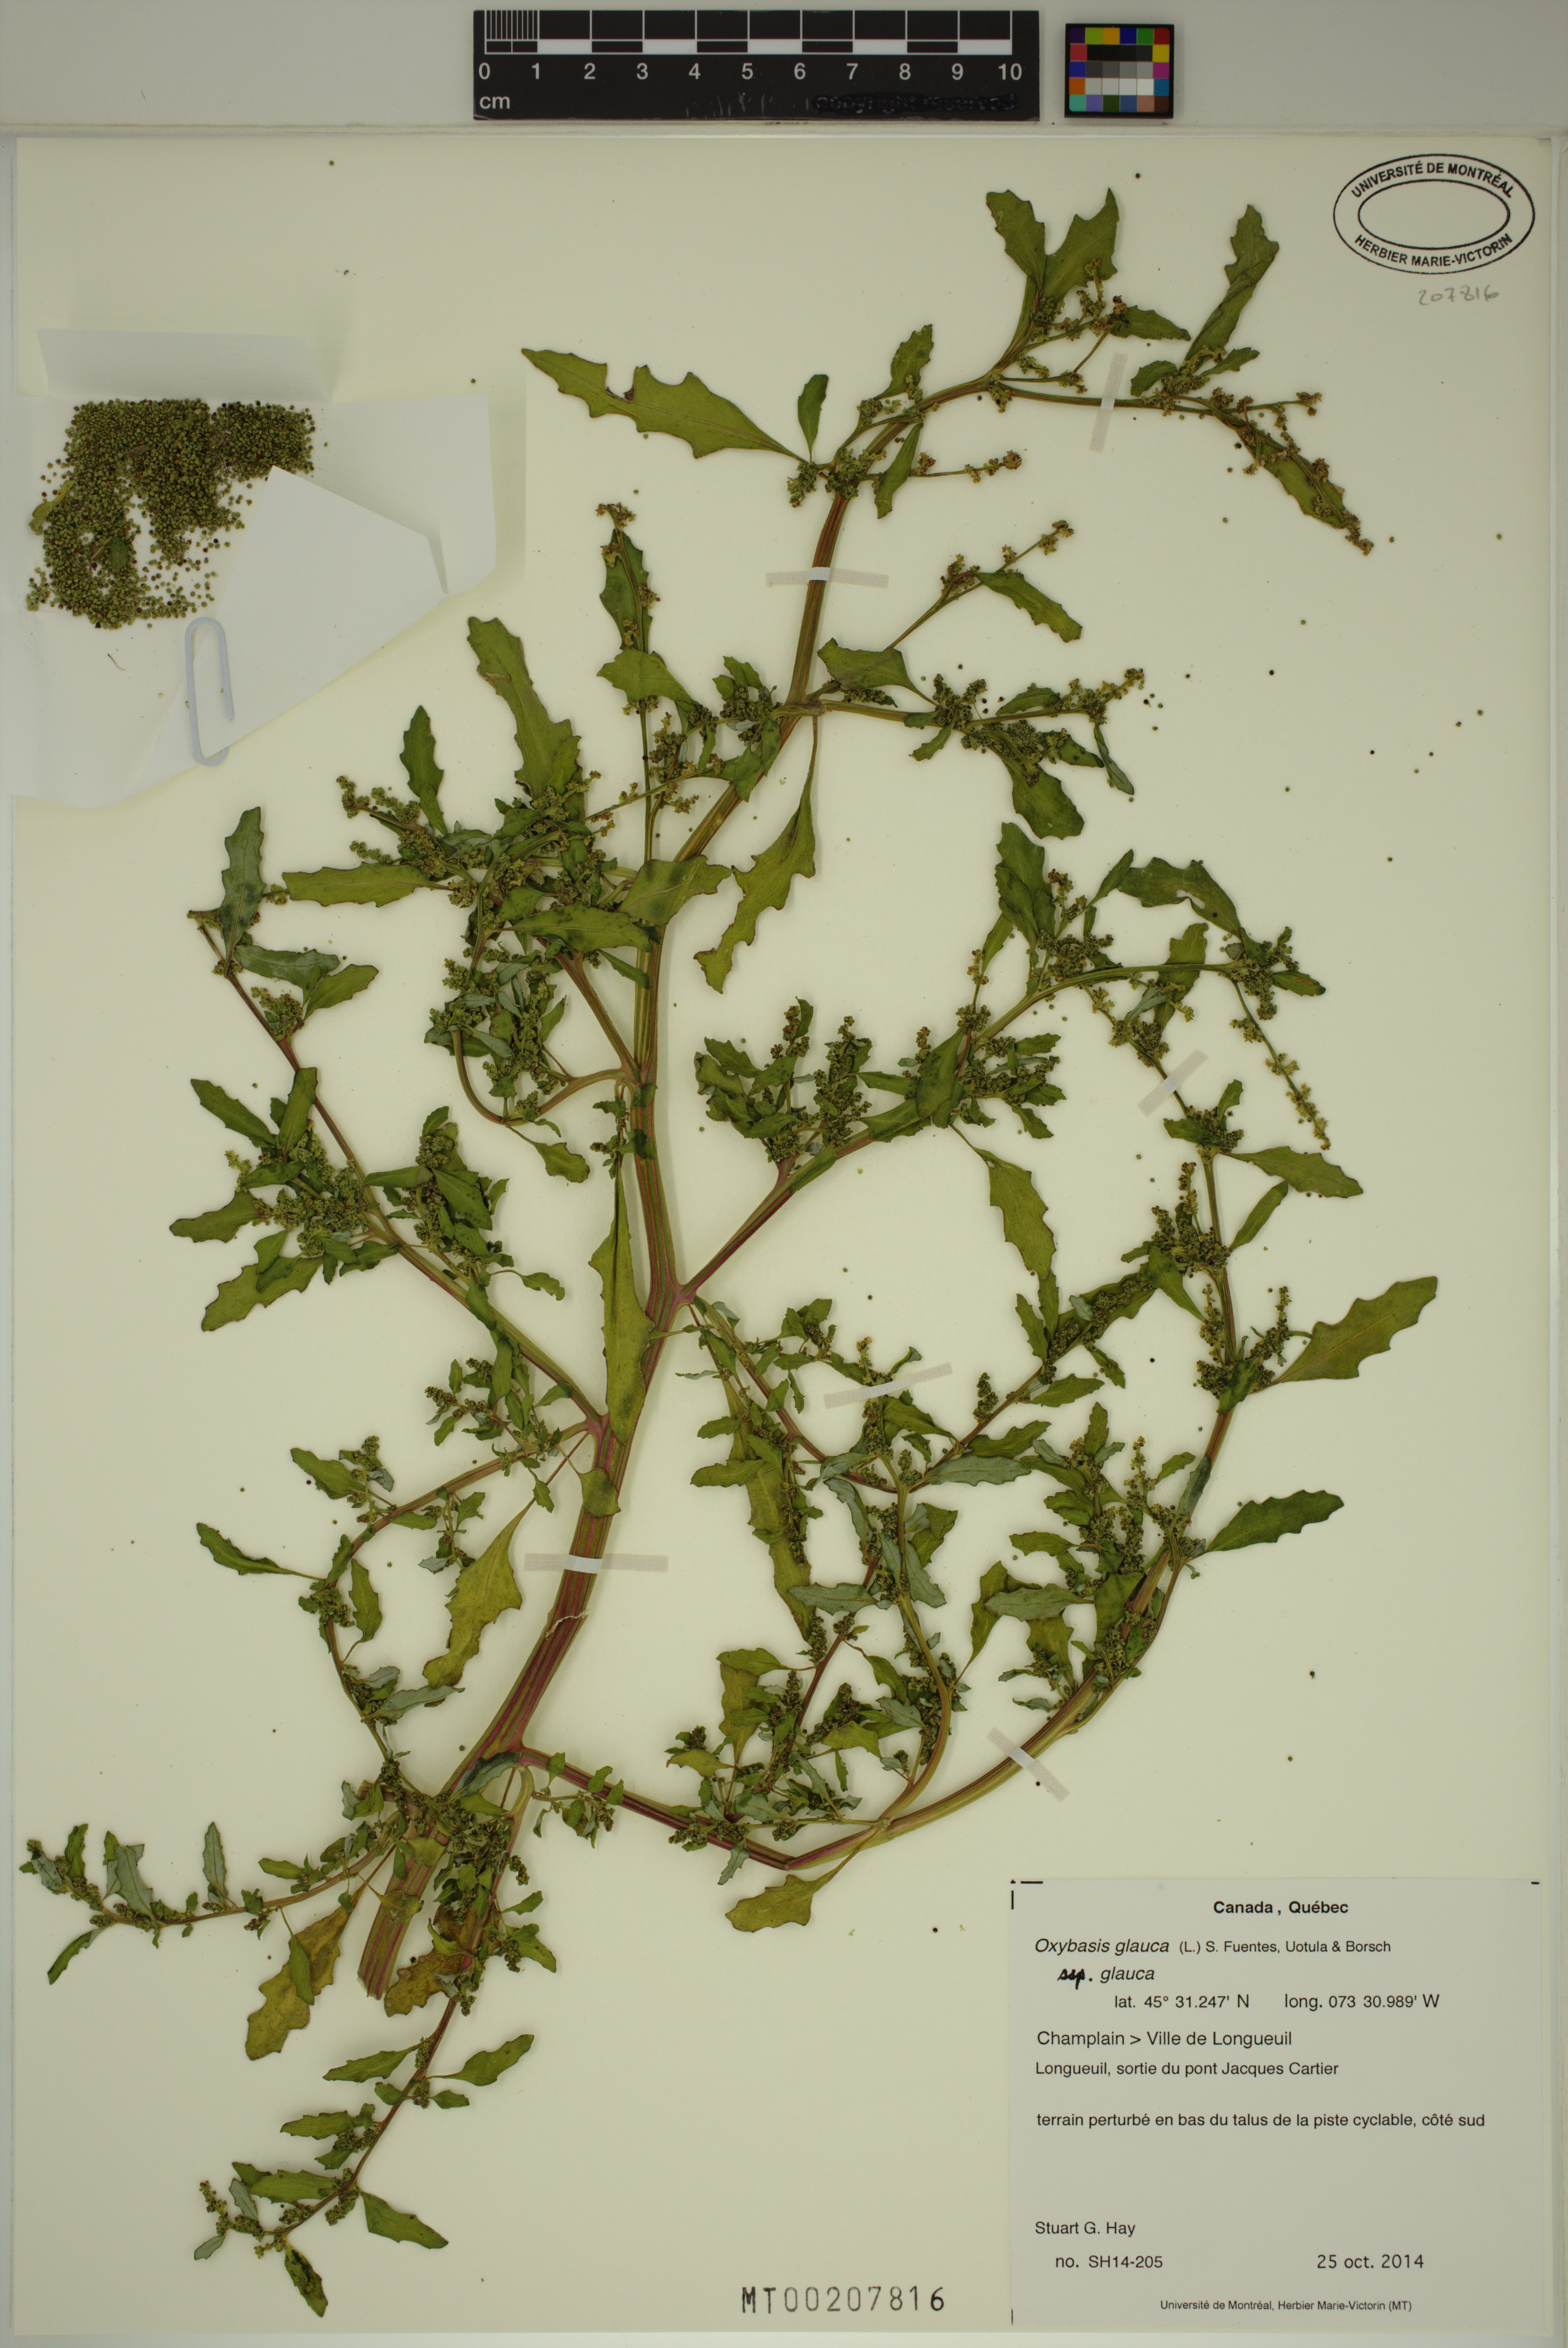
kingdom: Plantae
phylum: Tracheophyta
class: Magnoliopsida
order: Caryophyllales
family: Amaranthaceae
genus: Oxybasis
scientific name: Oxybasis glauca
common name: Glaucous goosefoot
